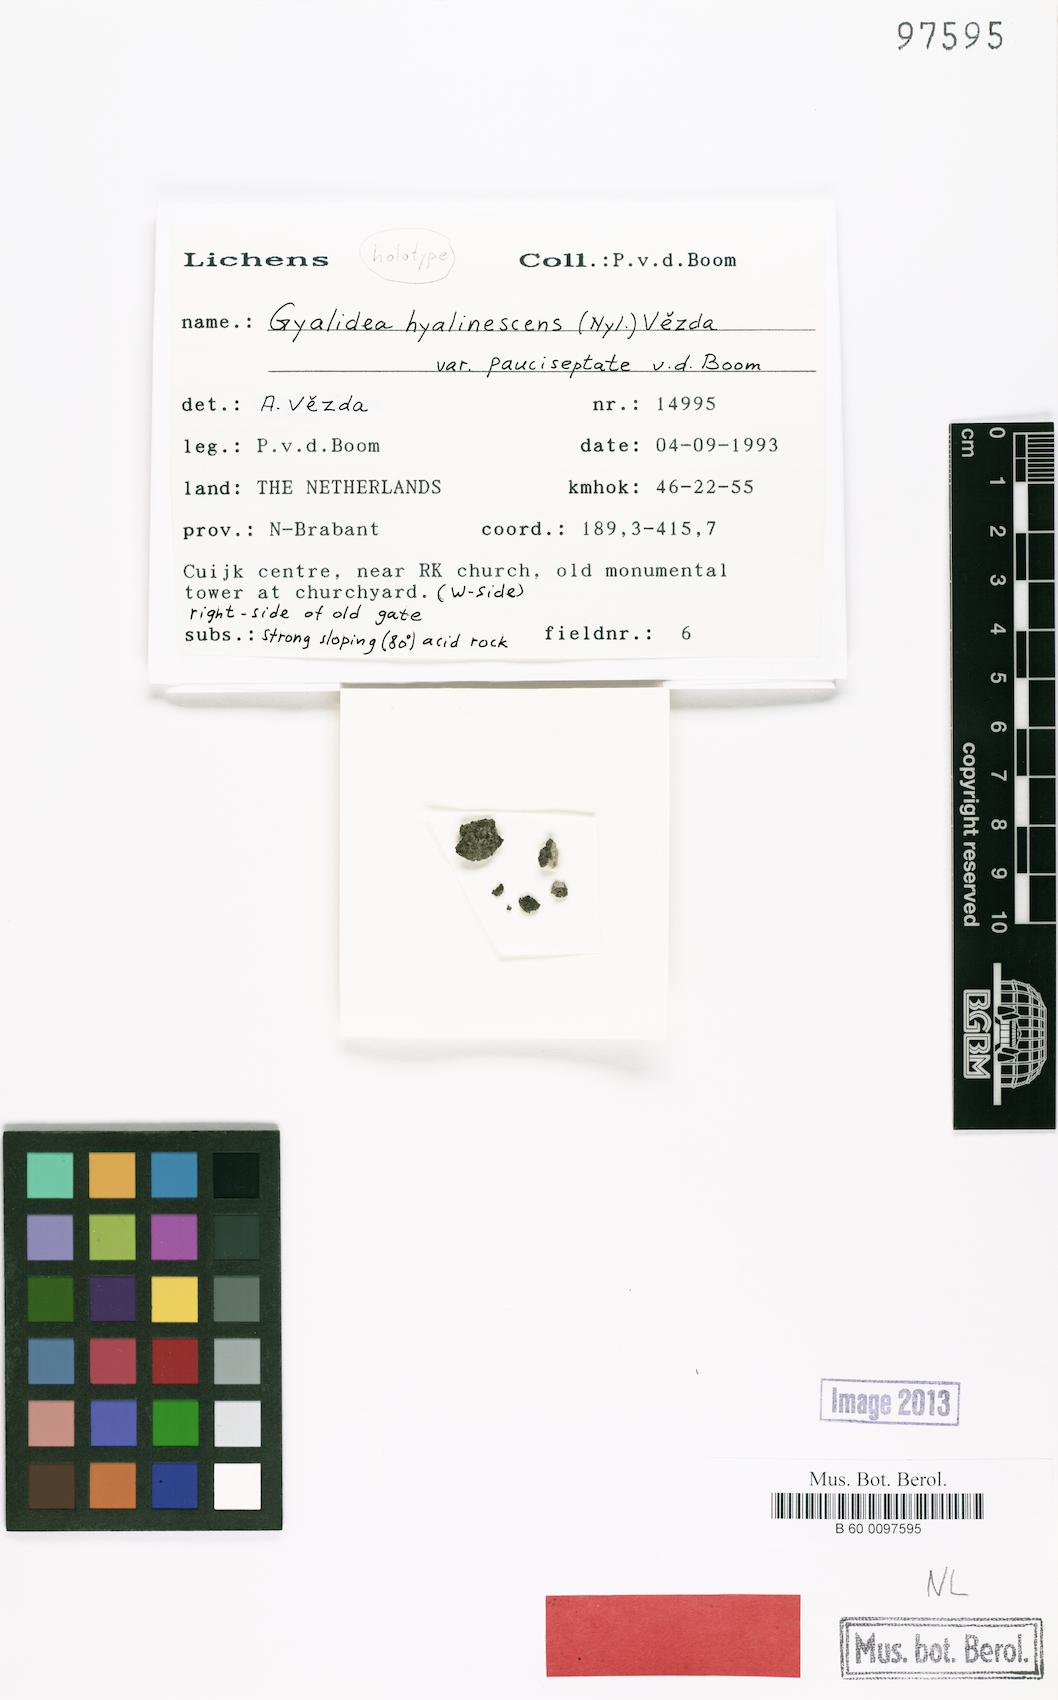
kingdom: Fungi
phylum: Ascomycota
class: Lecanoromycetes
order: Ostropales
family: Gomphillaceae
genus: Gyalidea
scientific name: Gyalidea hyalinescens
